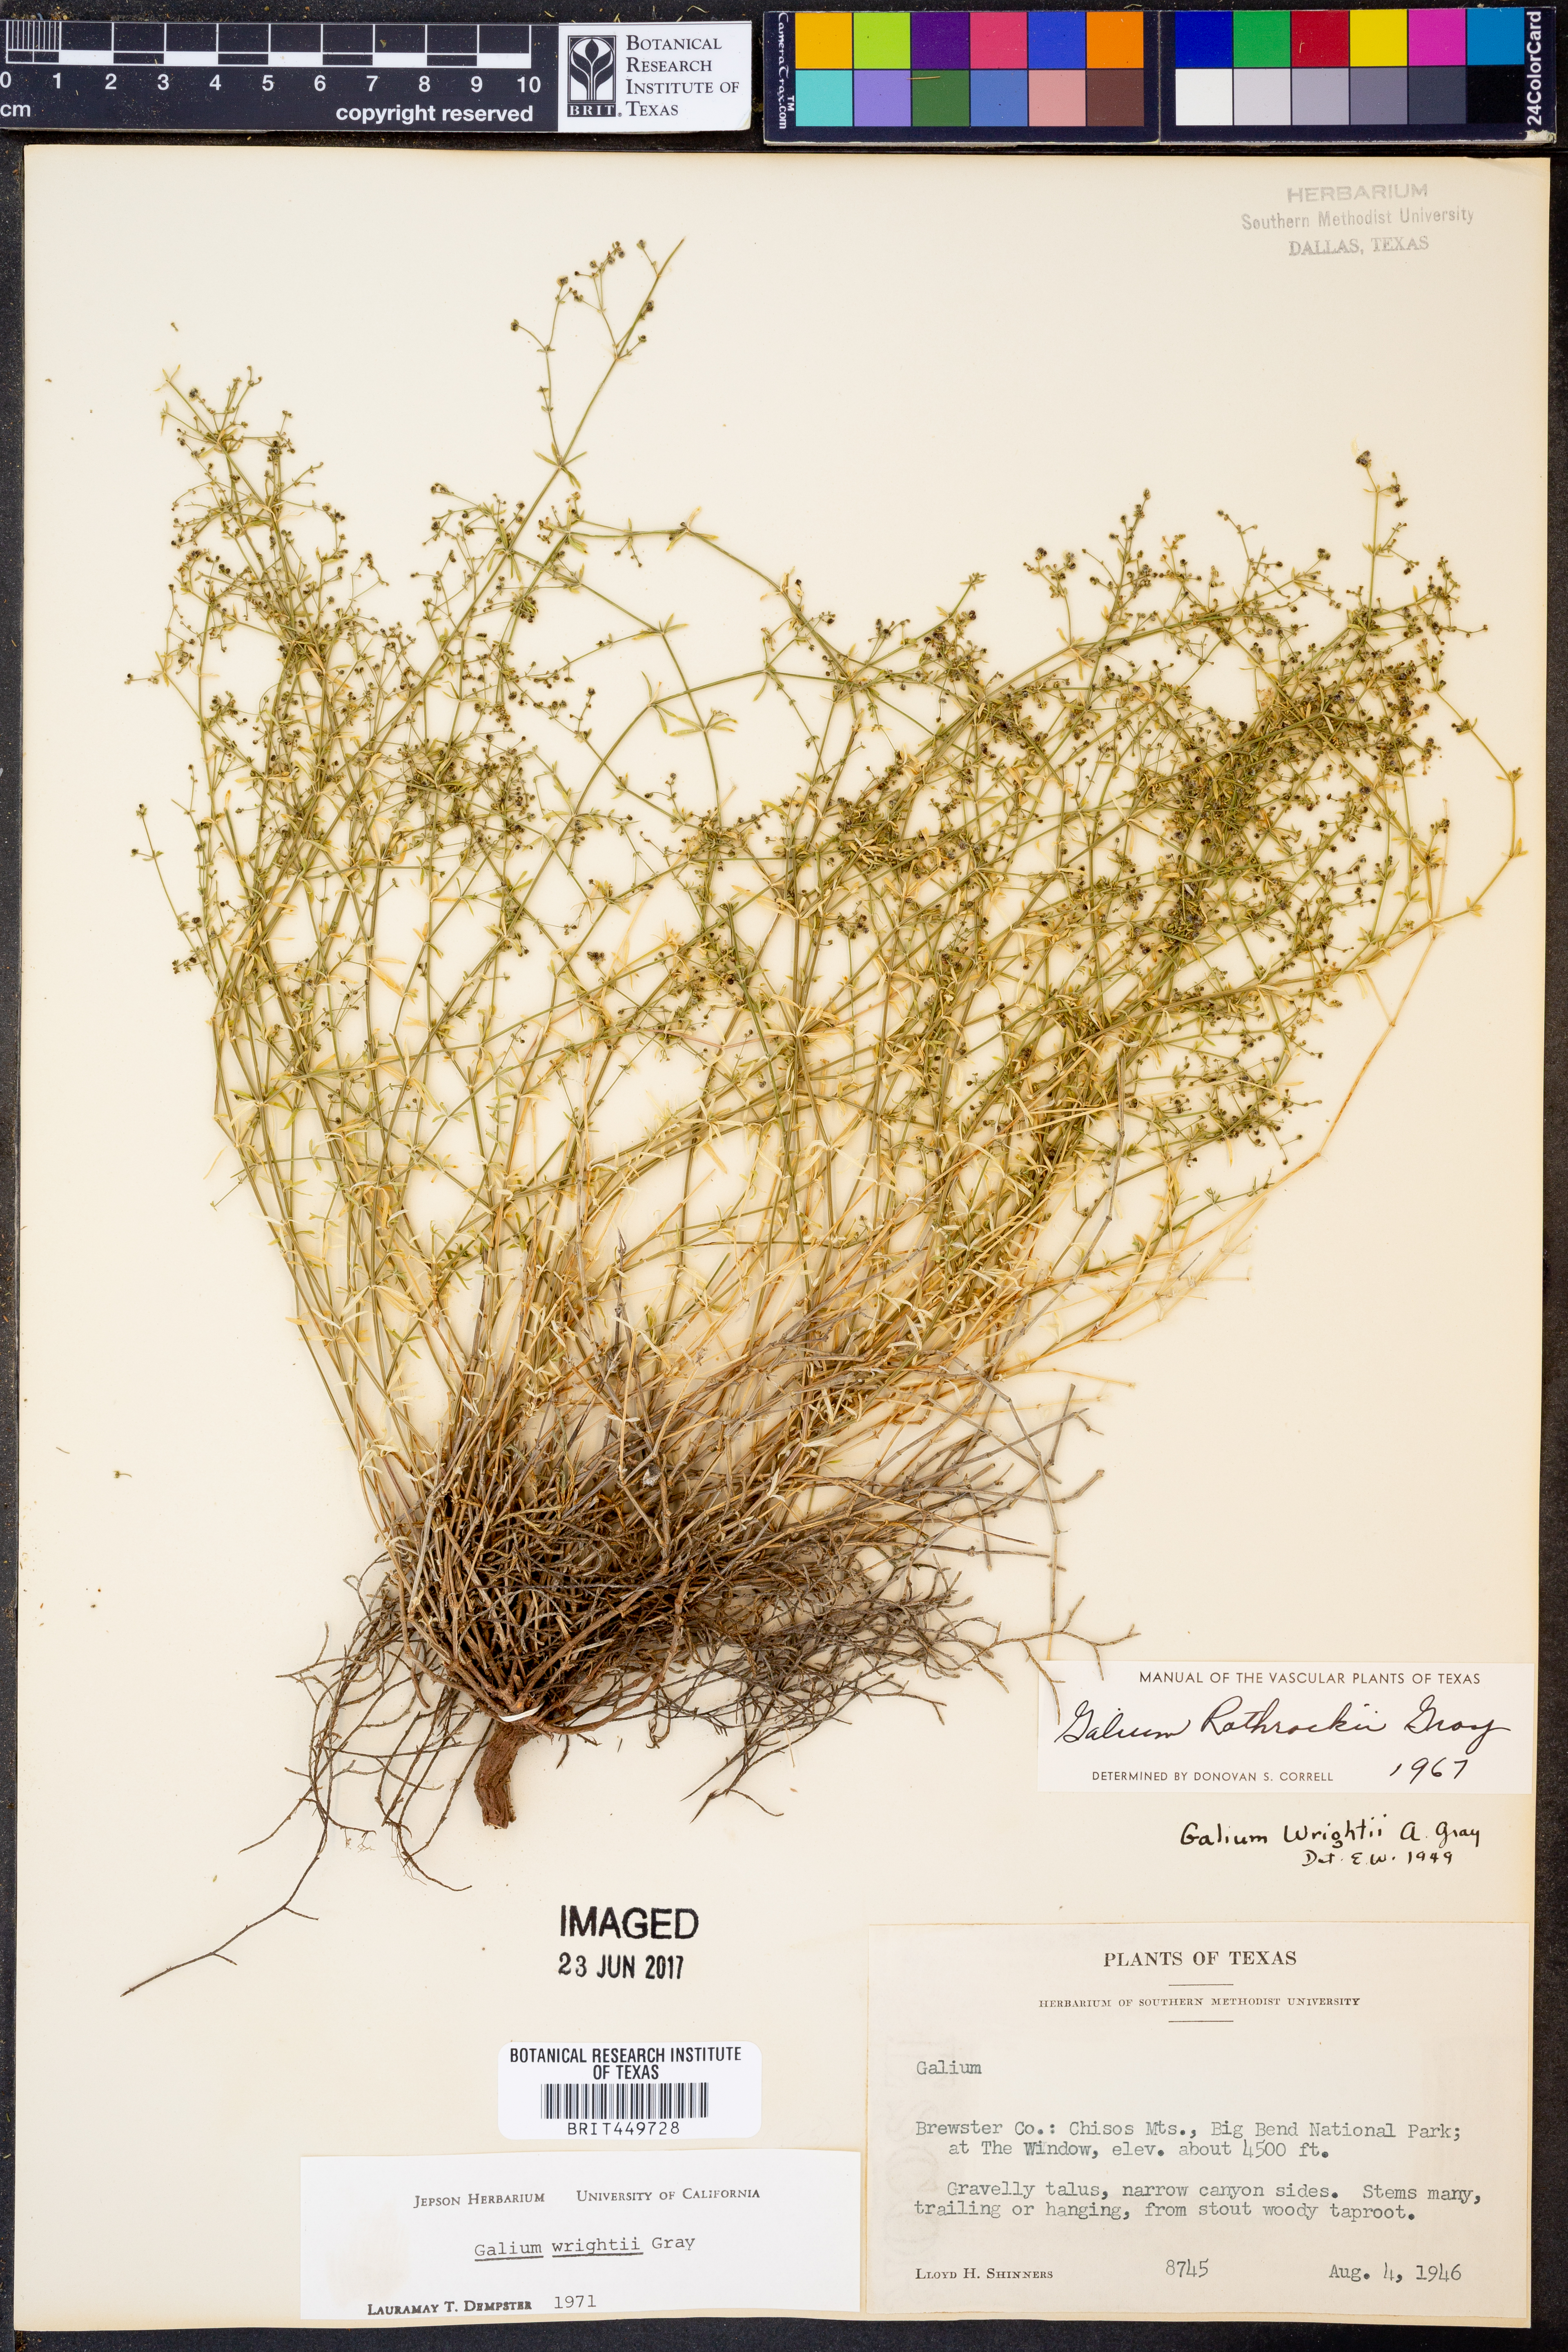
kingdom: Plantae
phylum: Tracheophyta
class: Magnoliopsida
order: Gentianales
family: Rubiaceae
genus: Galium
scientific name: Galium wrightii
